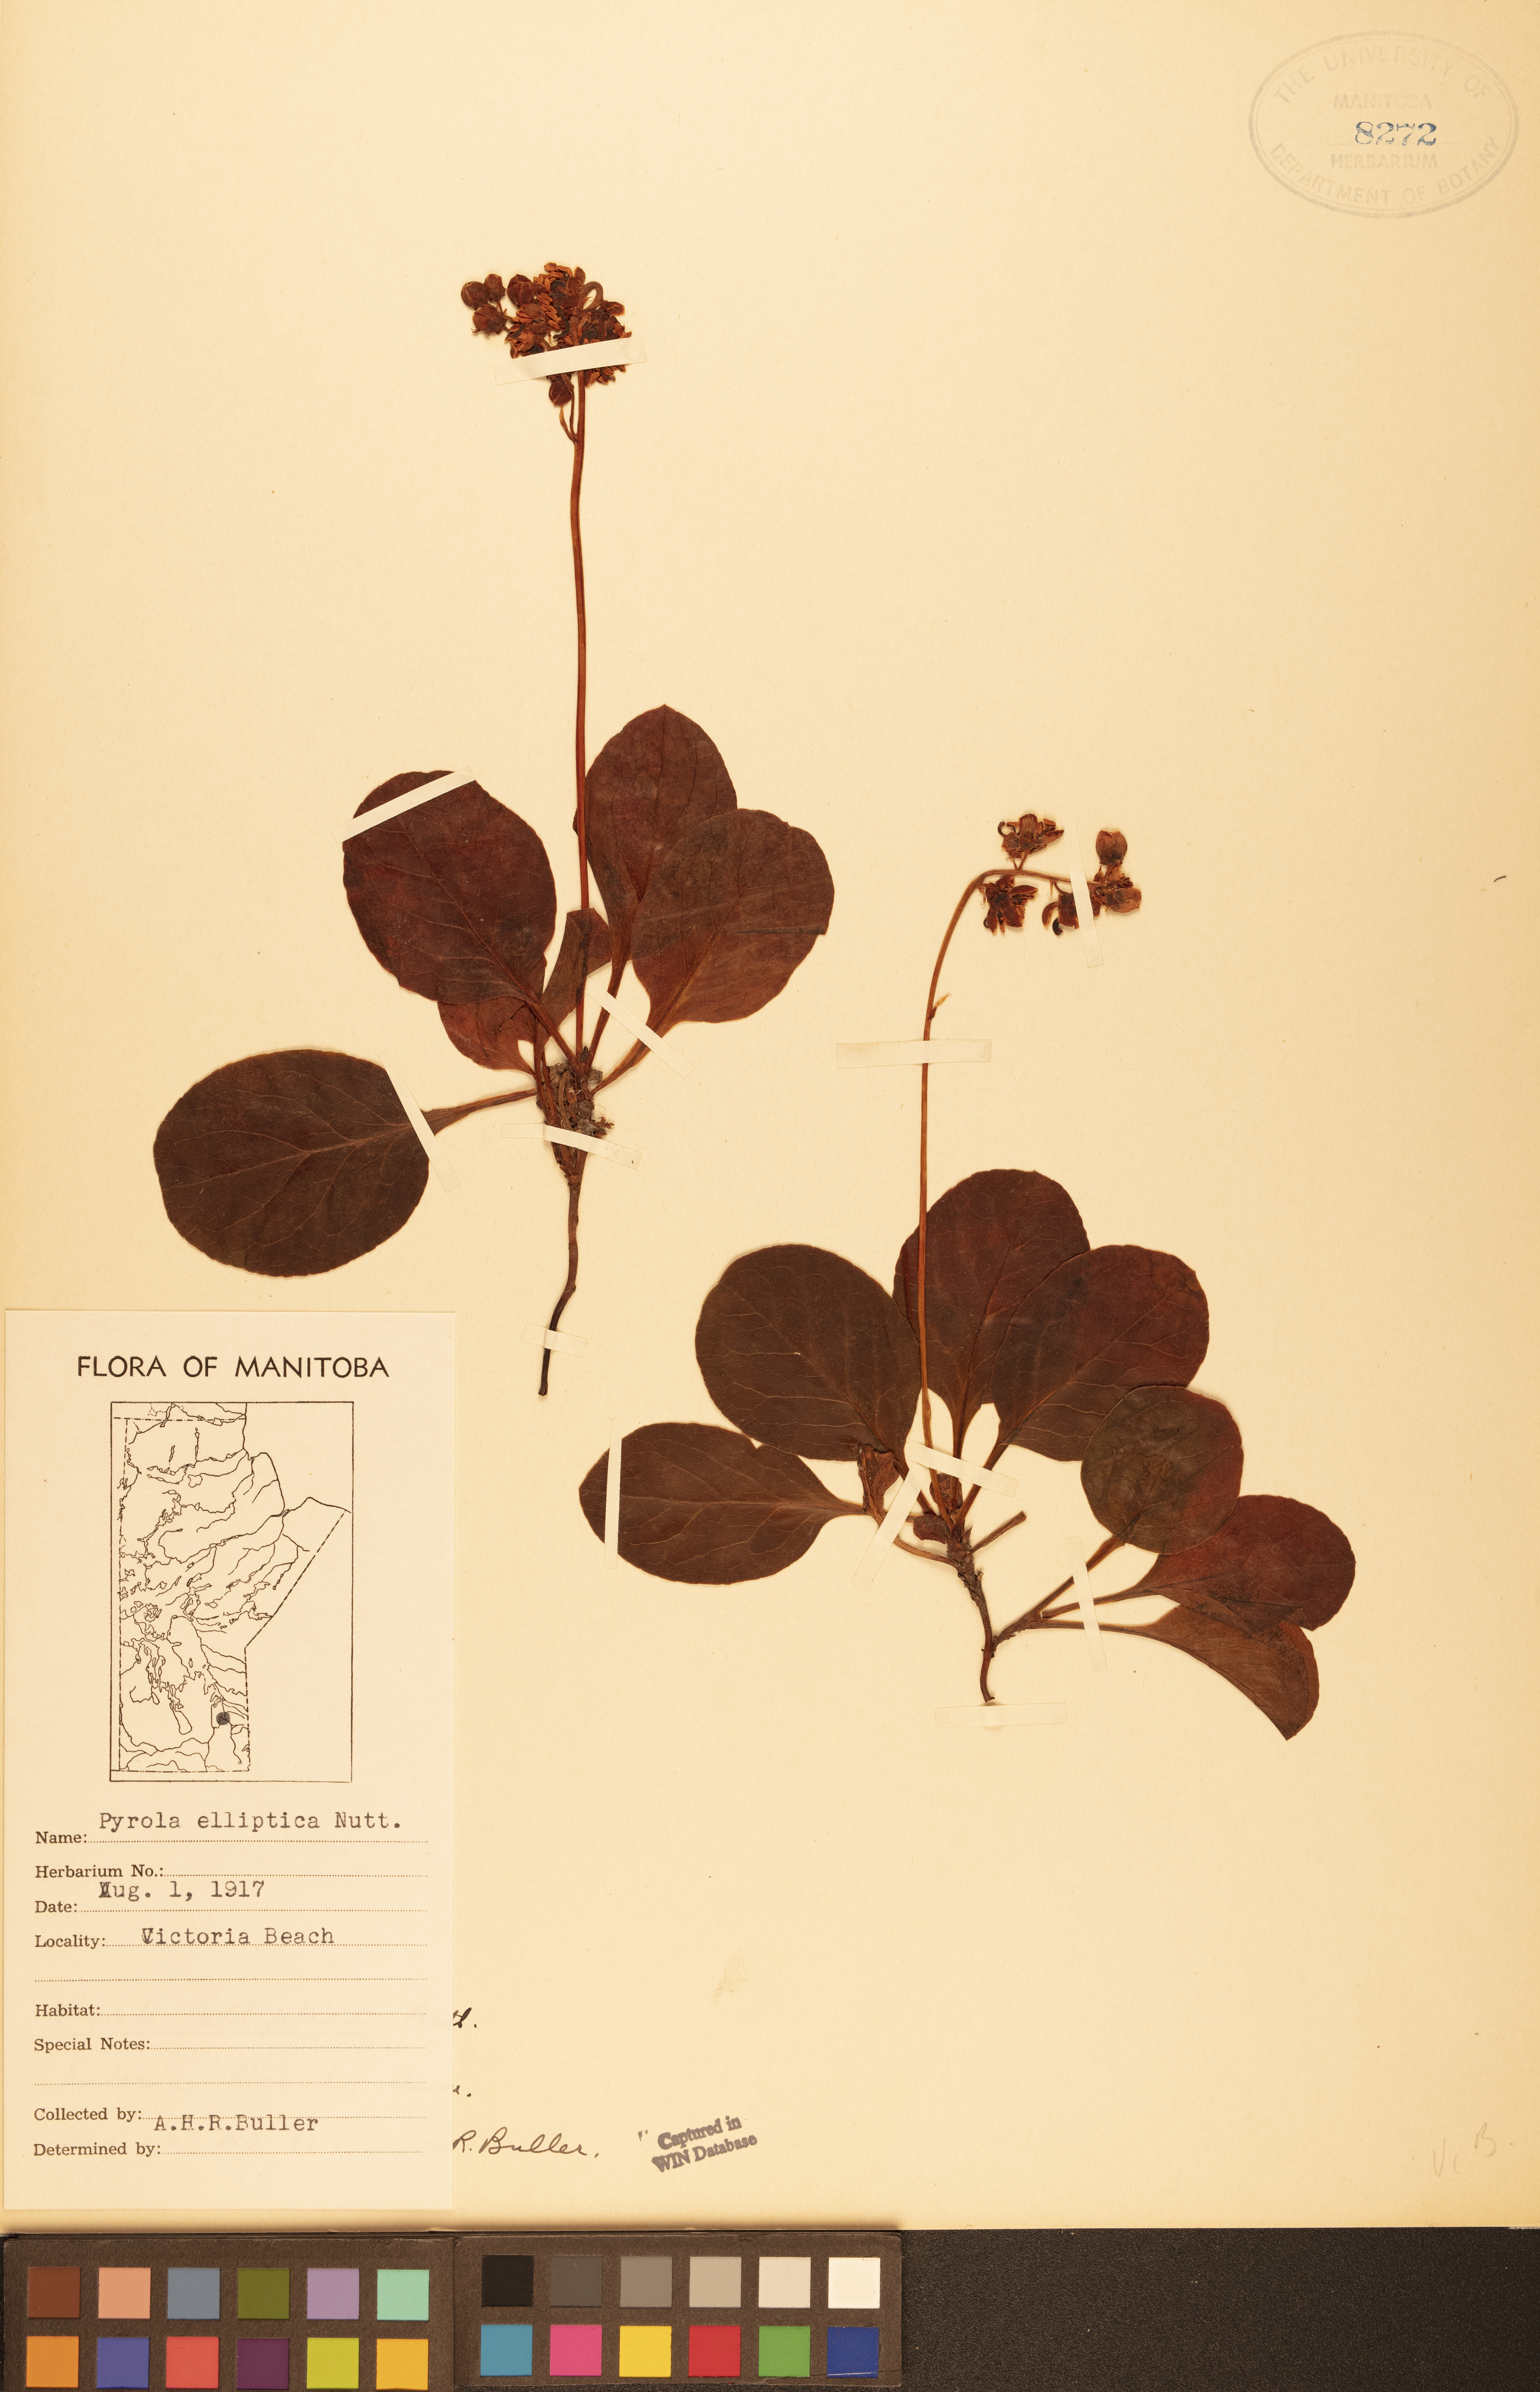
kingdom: Plantae
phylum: Tracheophyta
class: Magnoliopsida
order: Ericales
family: Ericaceae
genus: Pyrola
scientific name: Pyrola elliptica
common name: Shinleaf
